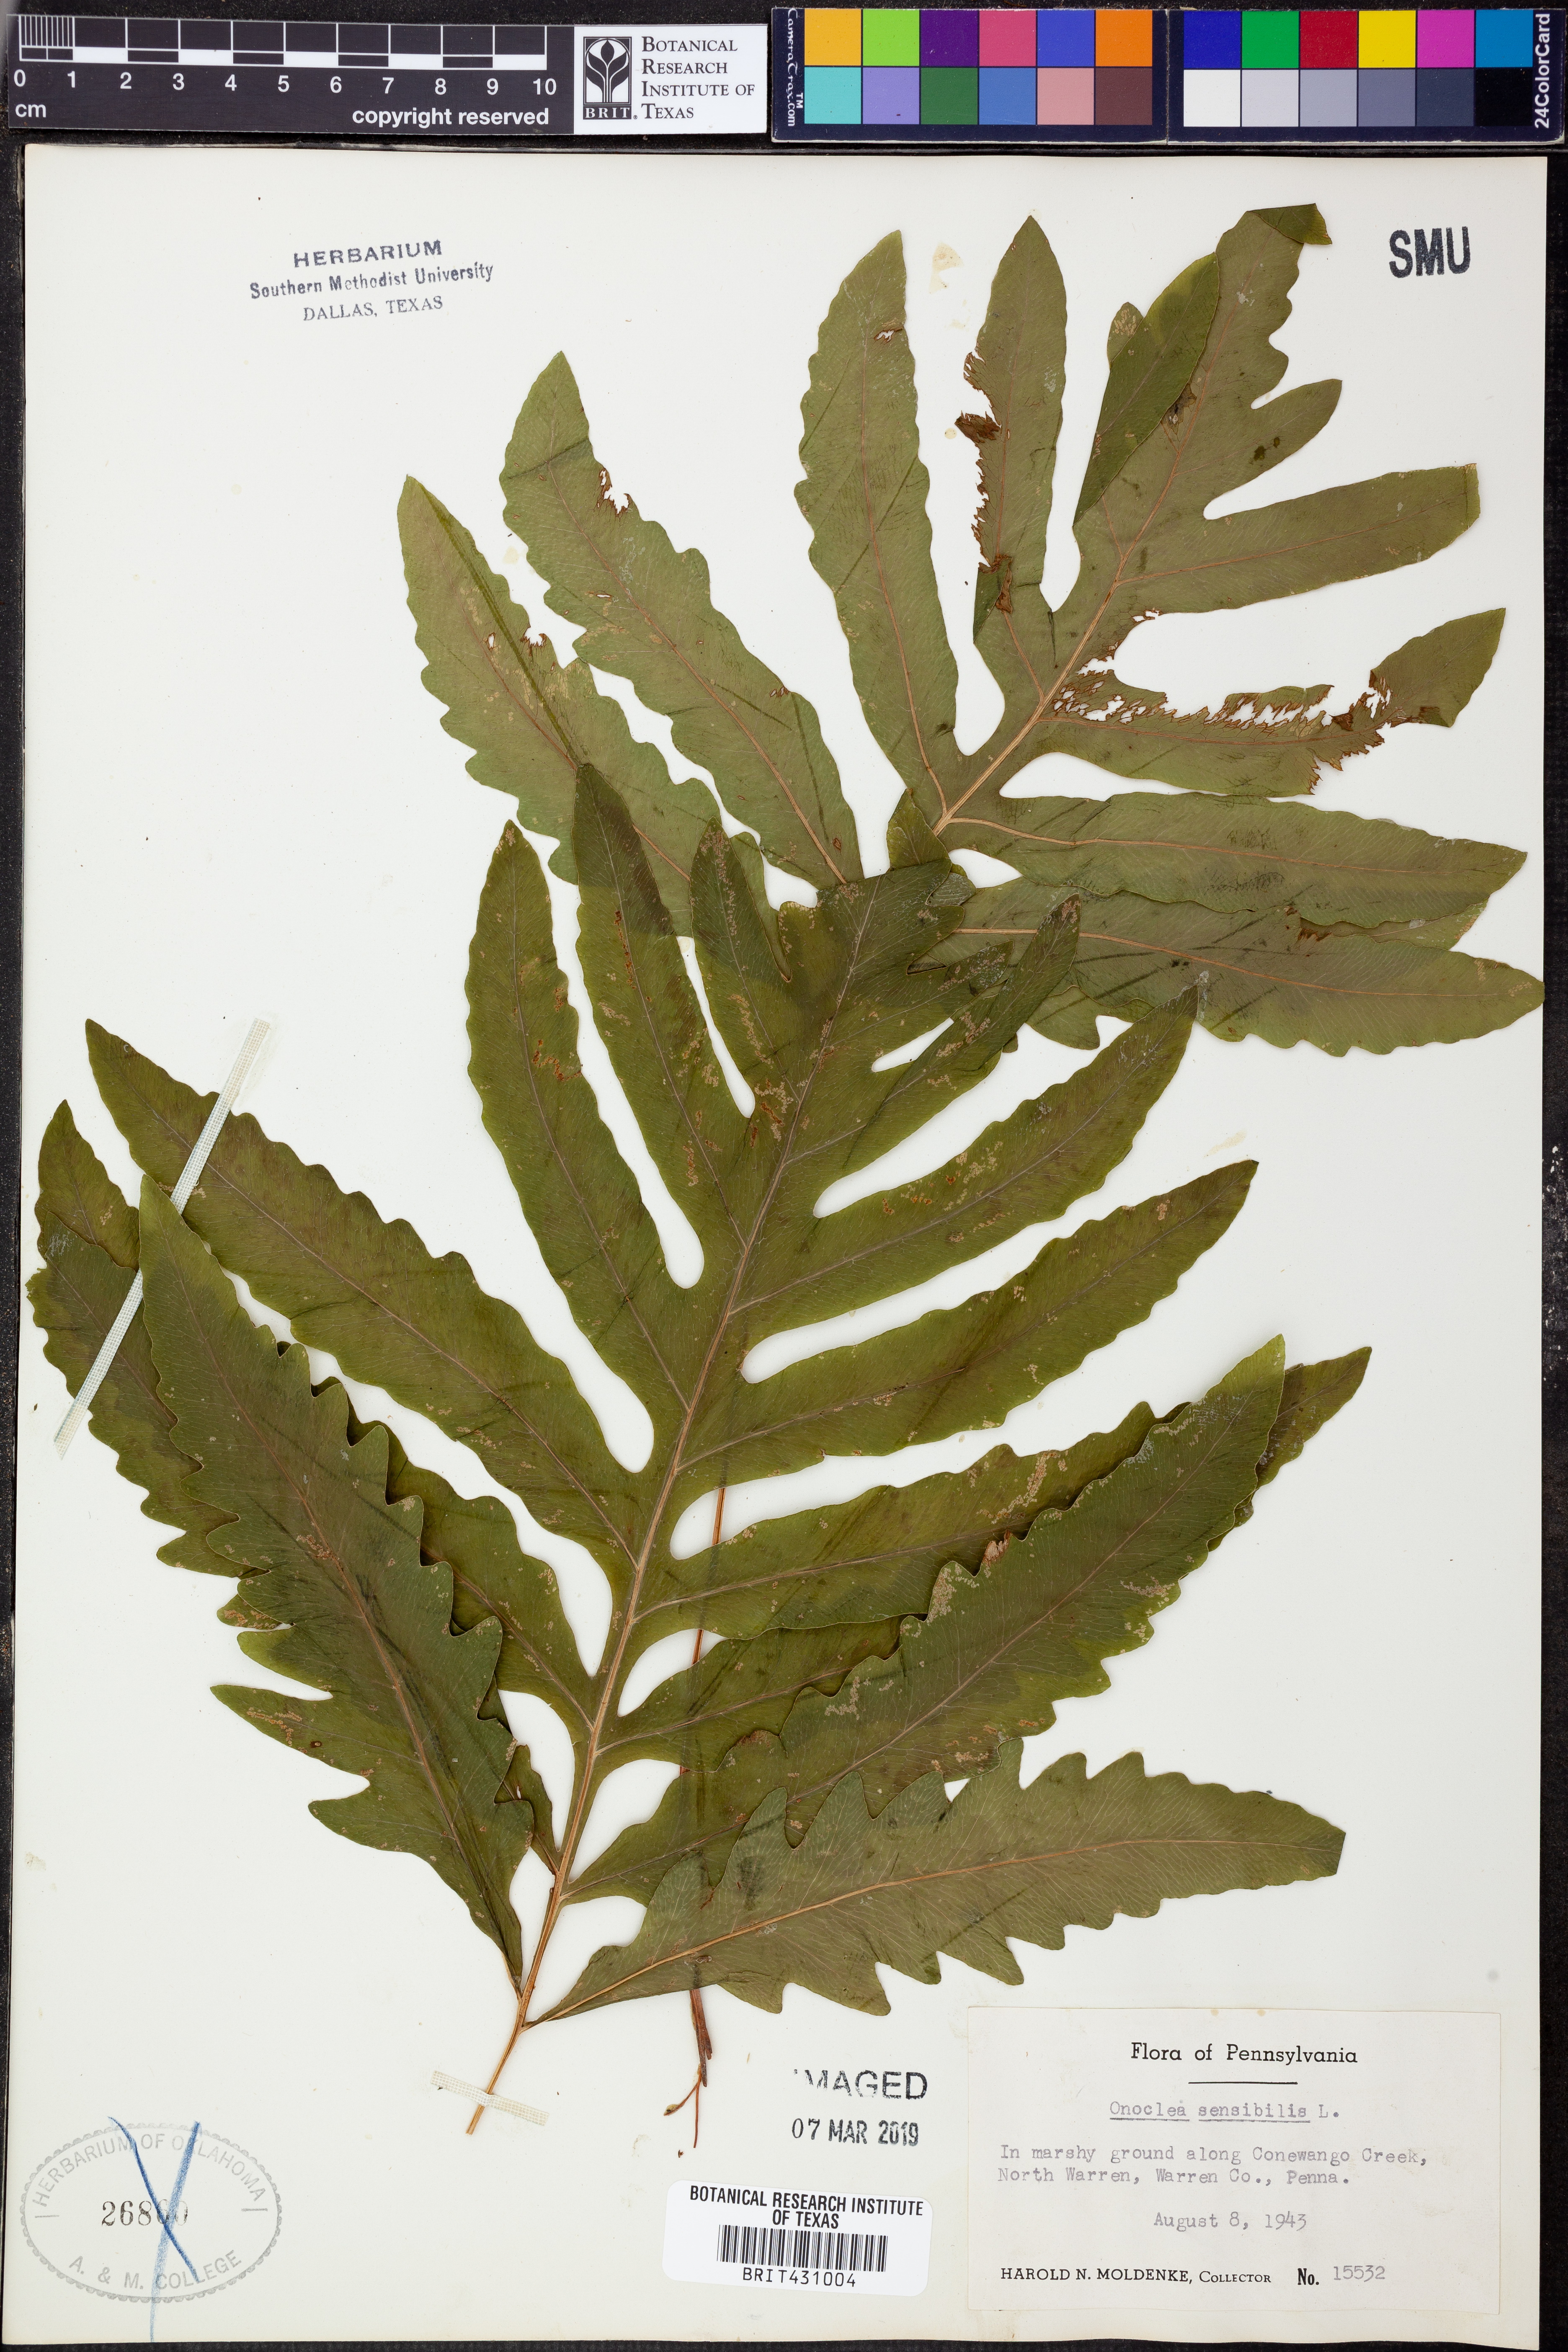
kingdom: Plantae
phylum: Tracheophyta
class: Polypodiopsida
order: Polypodiales
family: Onocleaceae
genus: Onoclea
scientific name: Onoclea sensibilis
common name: Sensitive fern
